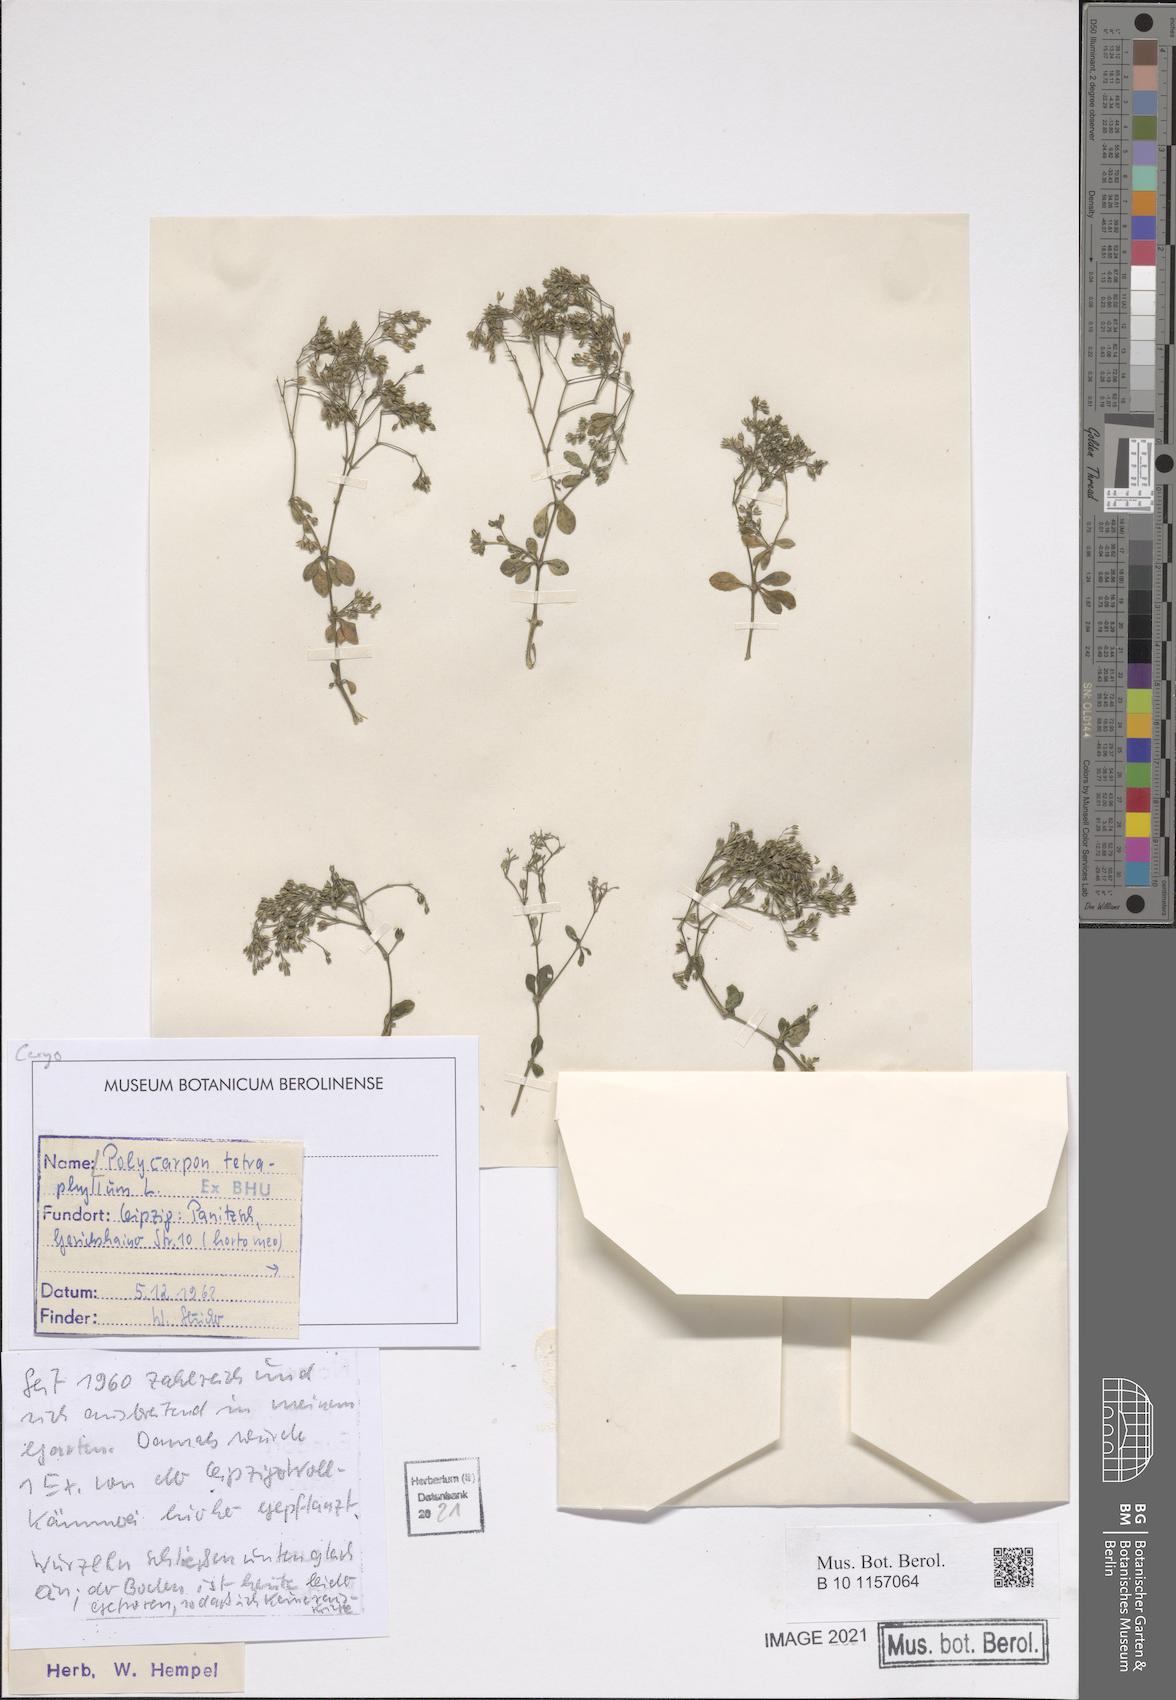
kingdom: Plantae
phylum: Tracheophyta
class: Magnoliopsida
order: Caryophyllales
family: Caryophyllaceae
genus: Polycarpon
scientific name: Polycarpon tetraphyllum
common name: Four-leaved all-seed
